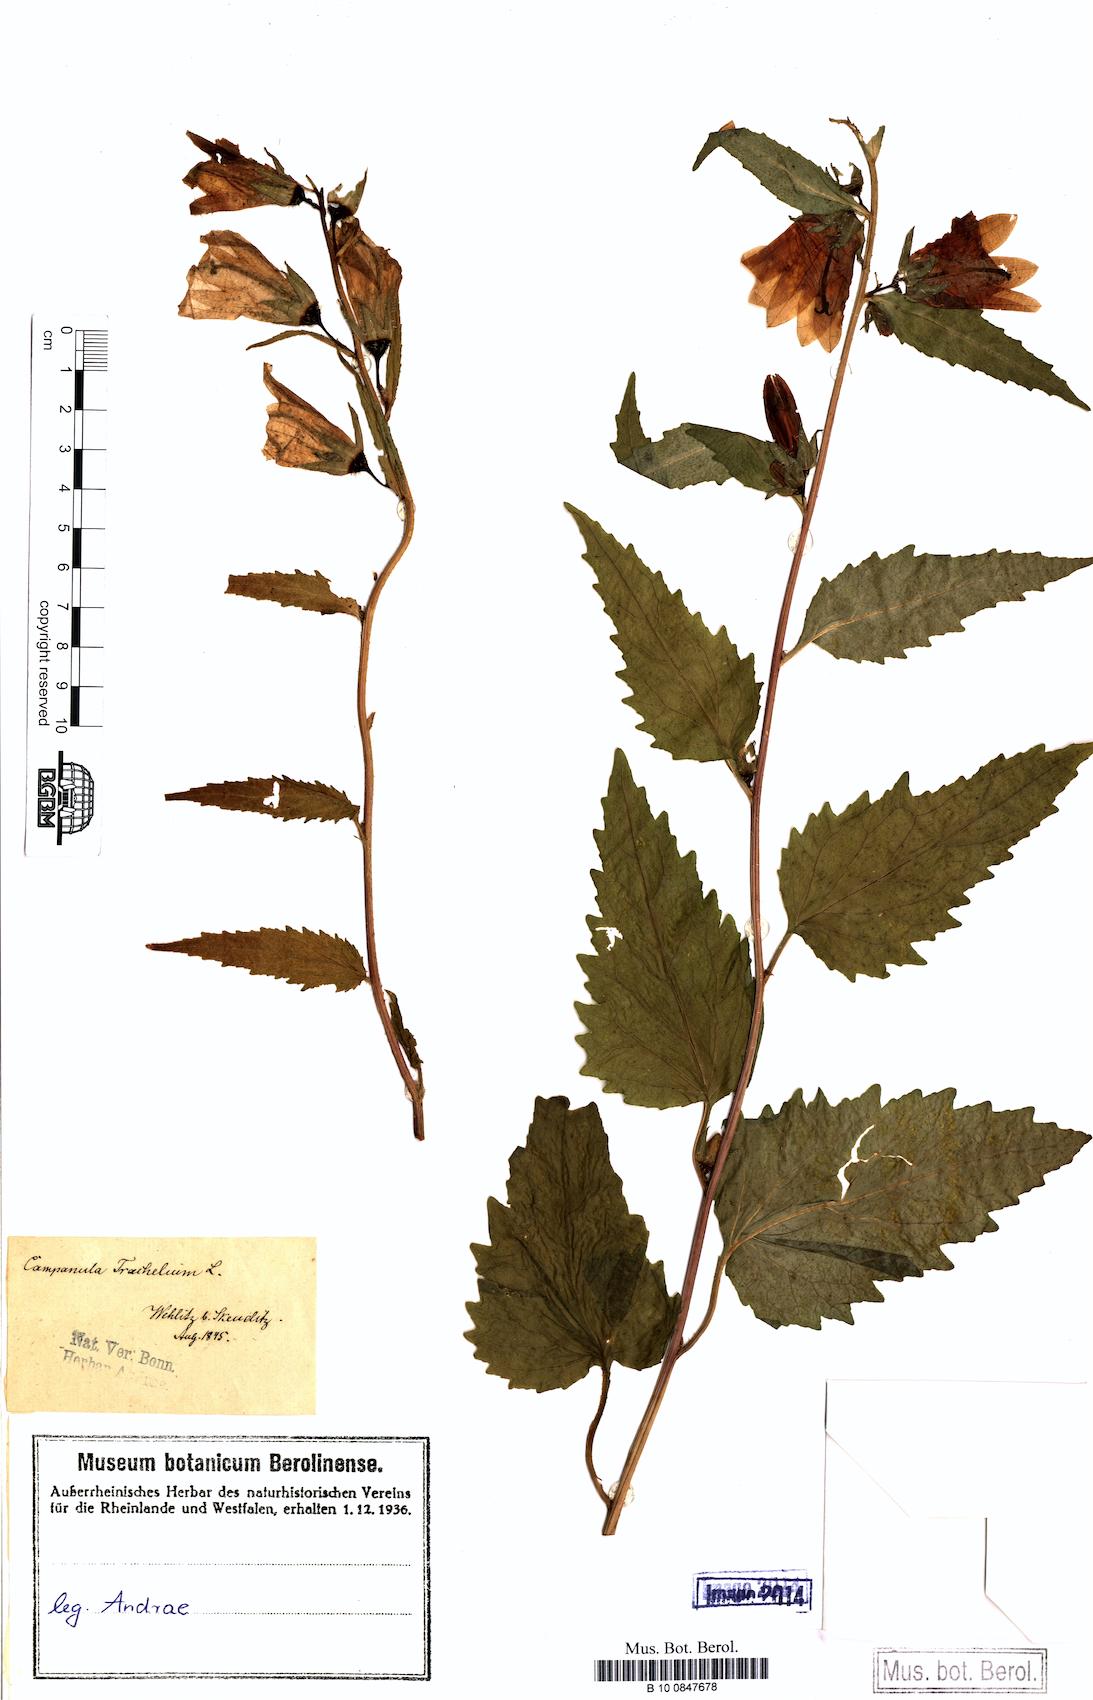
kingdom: Plantae
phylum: Tracheophyta
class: Magnoliopsida
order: Asterales
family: Campanulaceae
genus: Campanula
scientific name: Campanula trachelium
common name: Nettle-leaved bellflower
